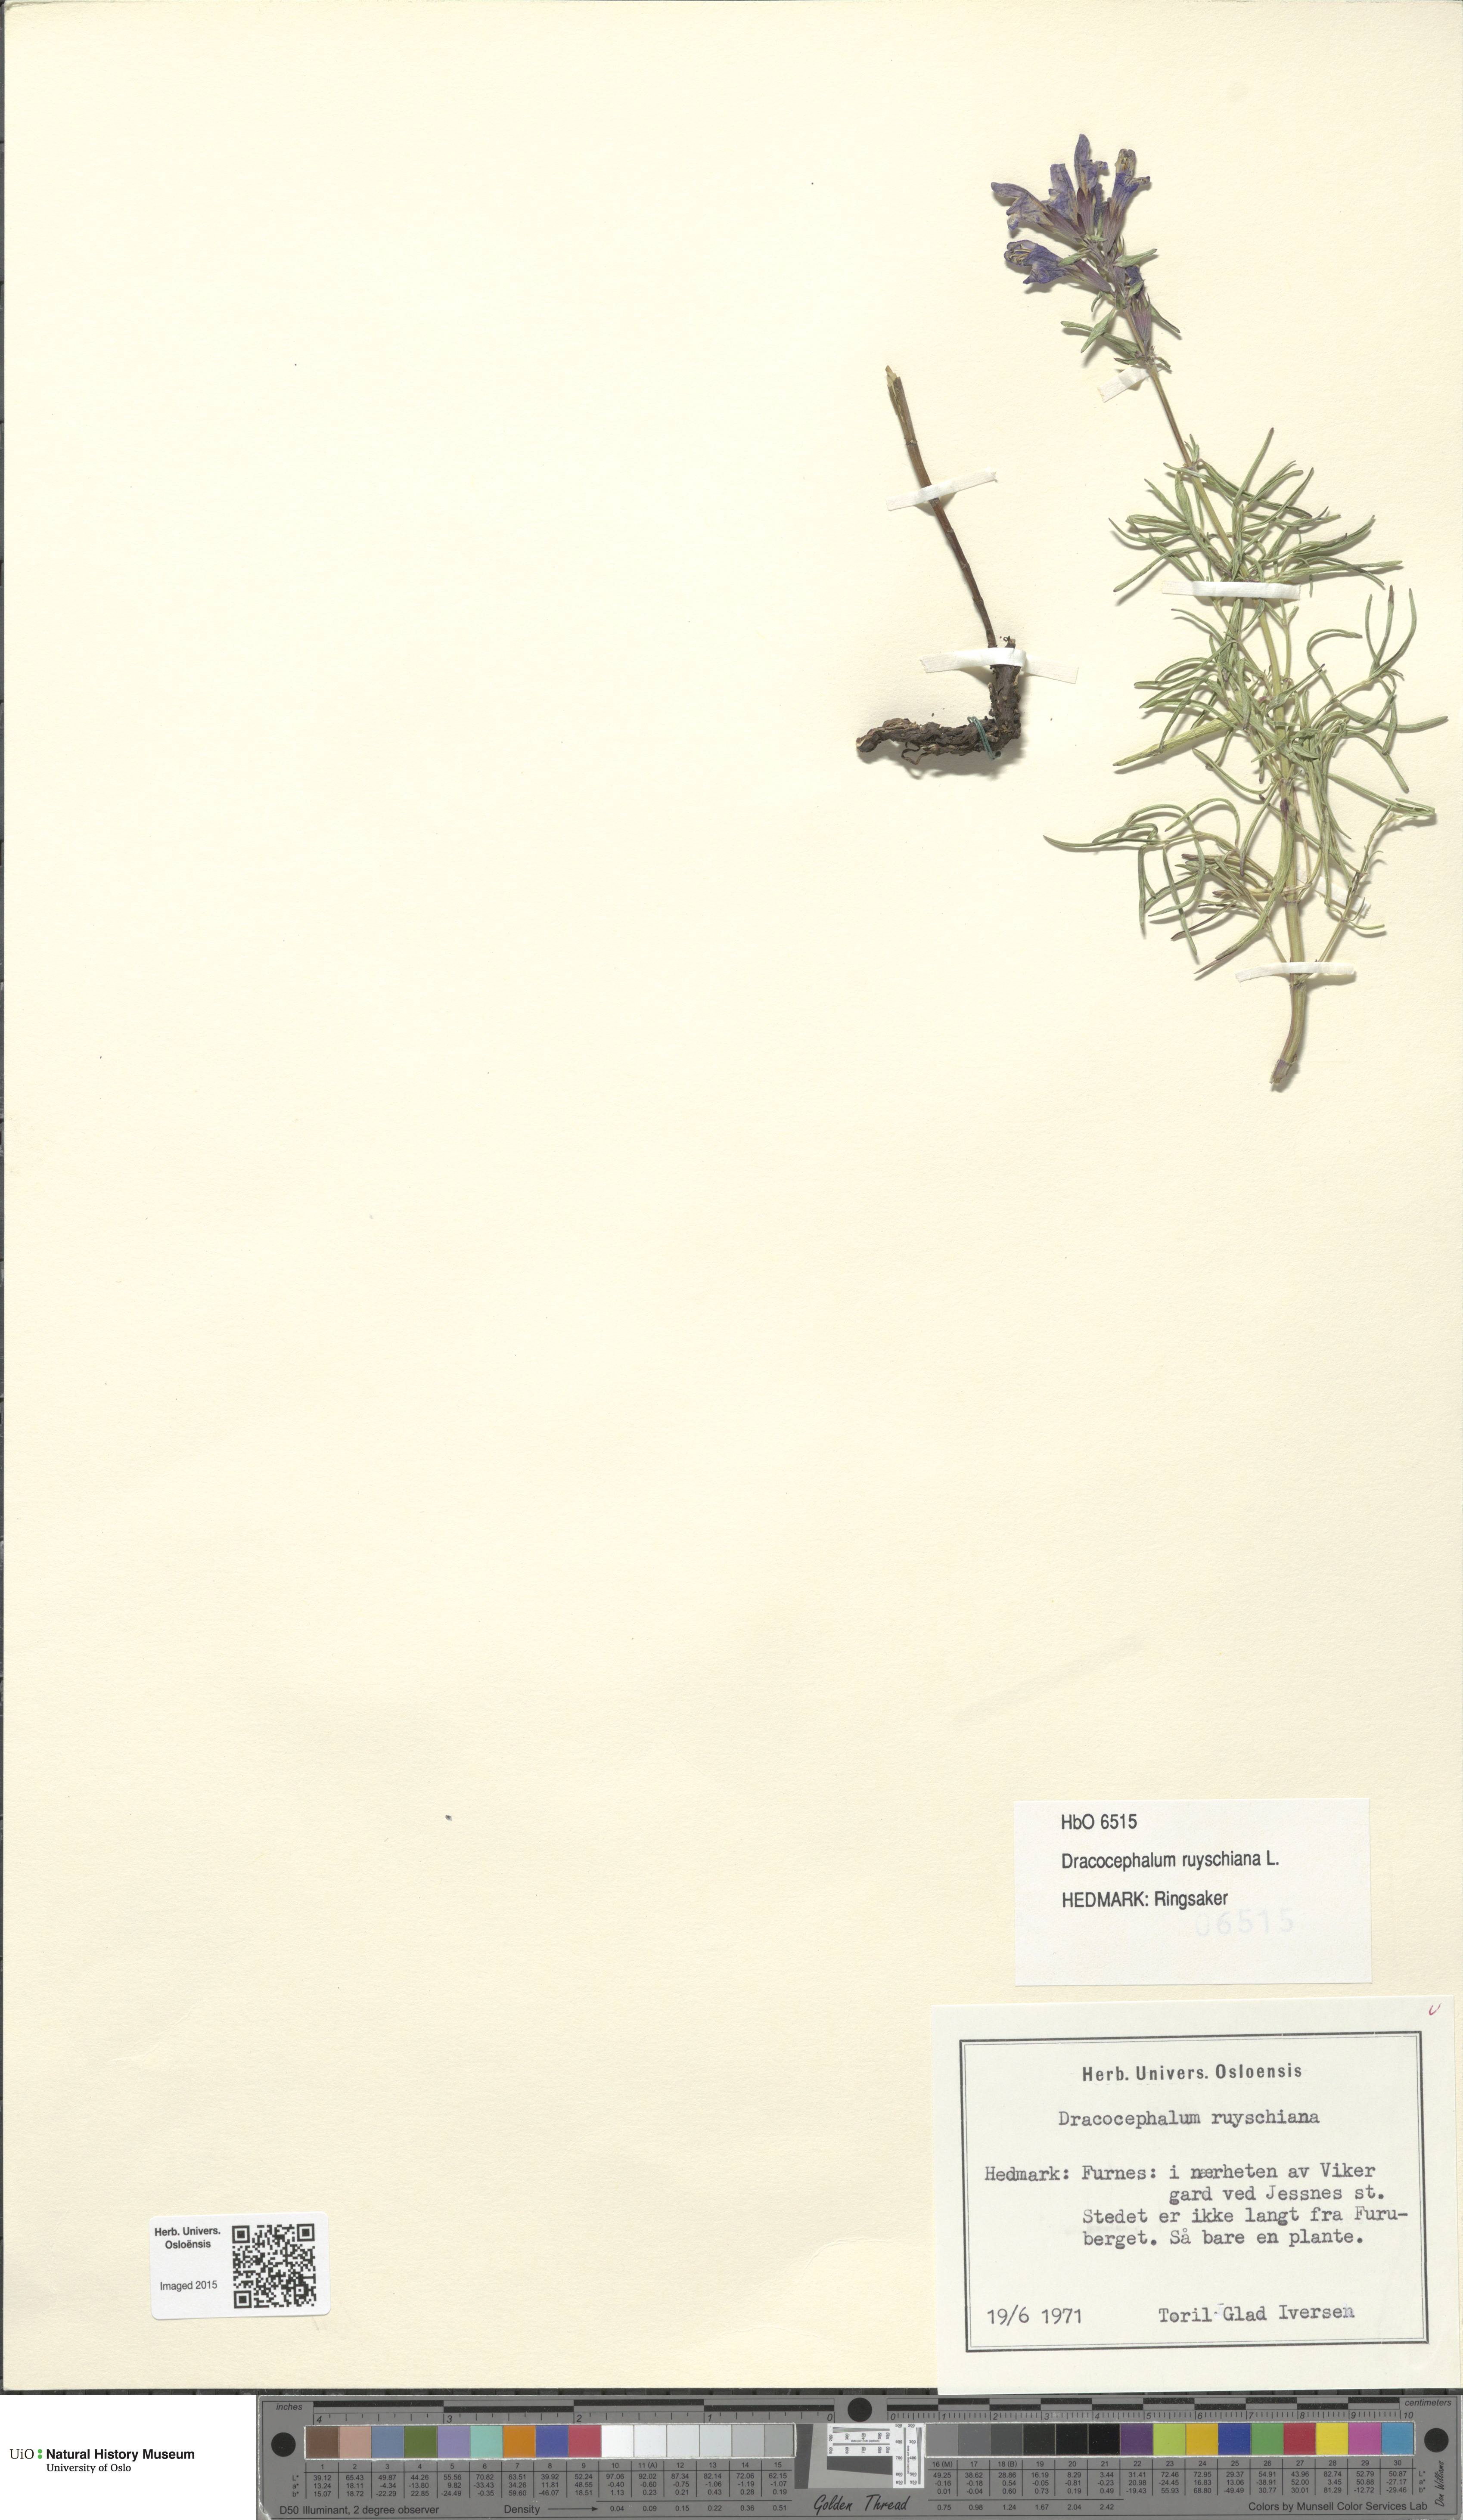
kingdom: Plantae
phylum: Tracheophyta
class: Magnoliopsida
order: Lamiales
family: Lamiaceae
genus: Dracocephalum
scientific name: Dracocephalum ruyschiana
